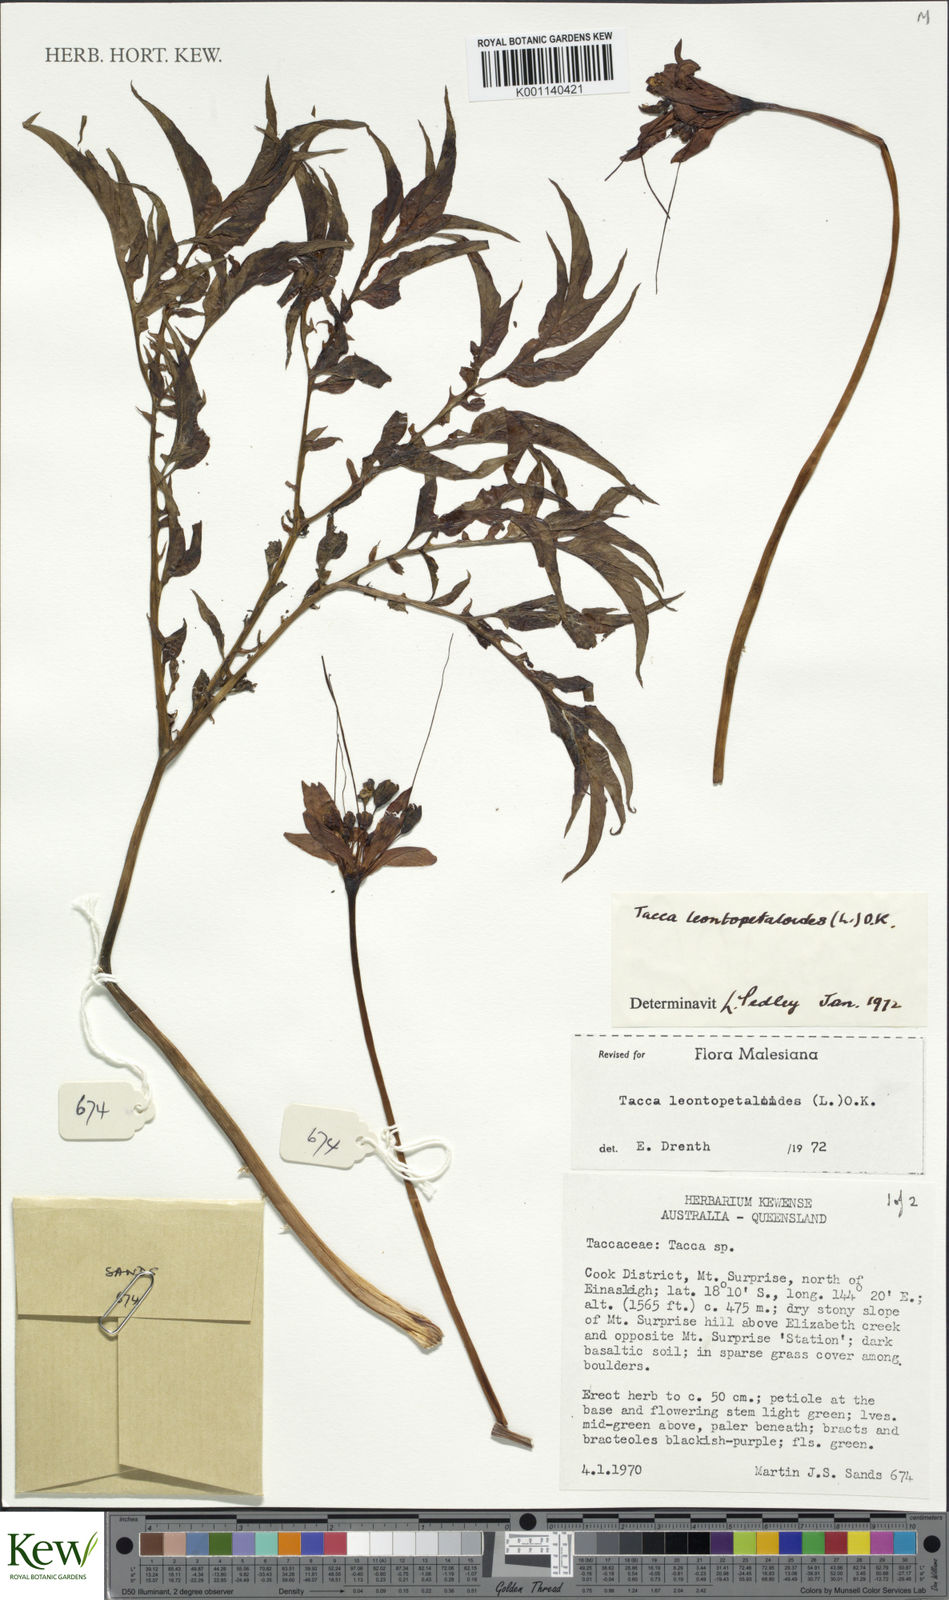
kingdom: Plantae
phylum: Tracheophyta
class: Liliopsida
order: Dioscoreales
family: Dioscoreaceae
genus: Tacca
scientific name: Tacca leontopetaloides
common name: Arrowroot
